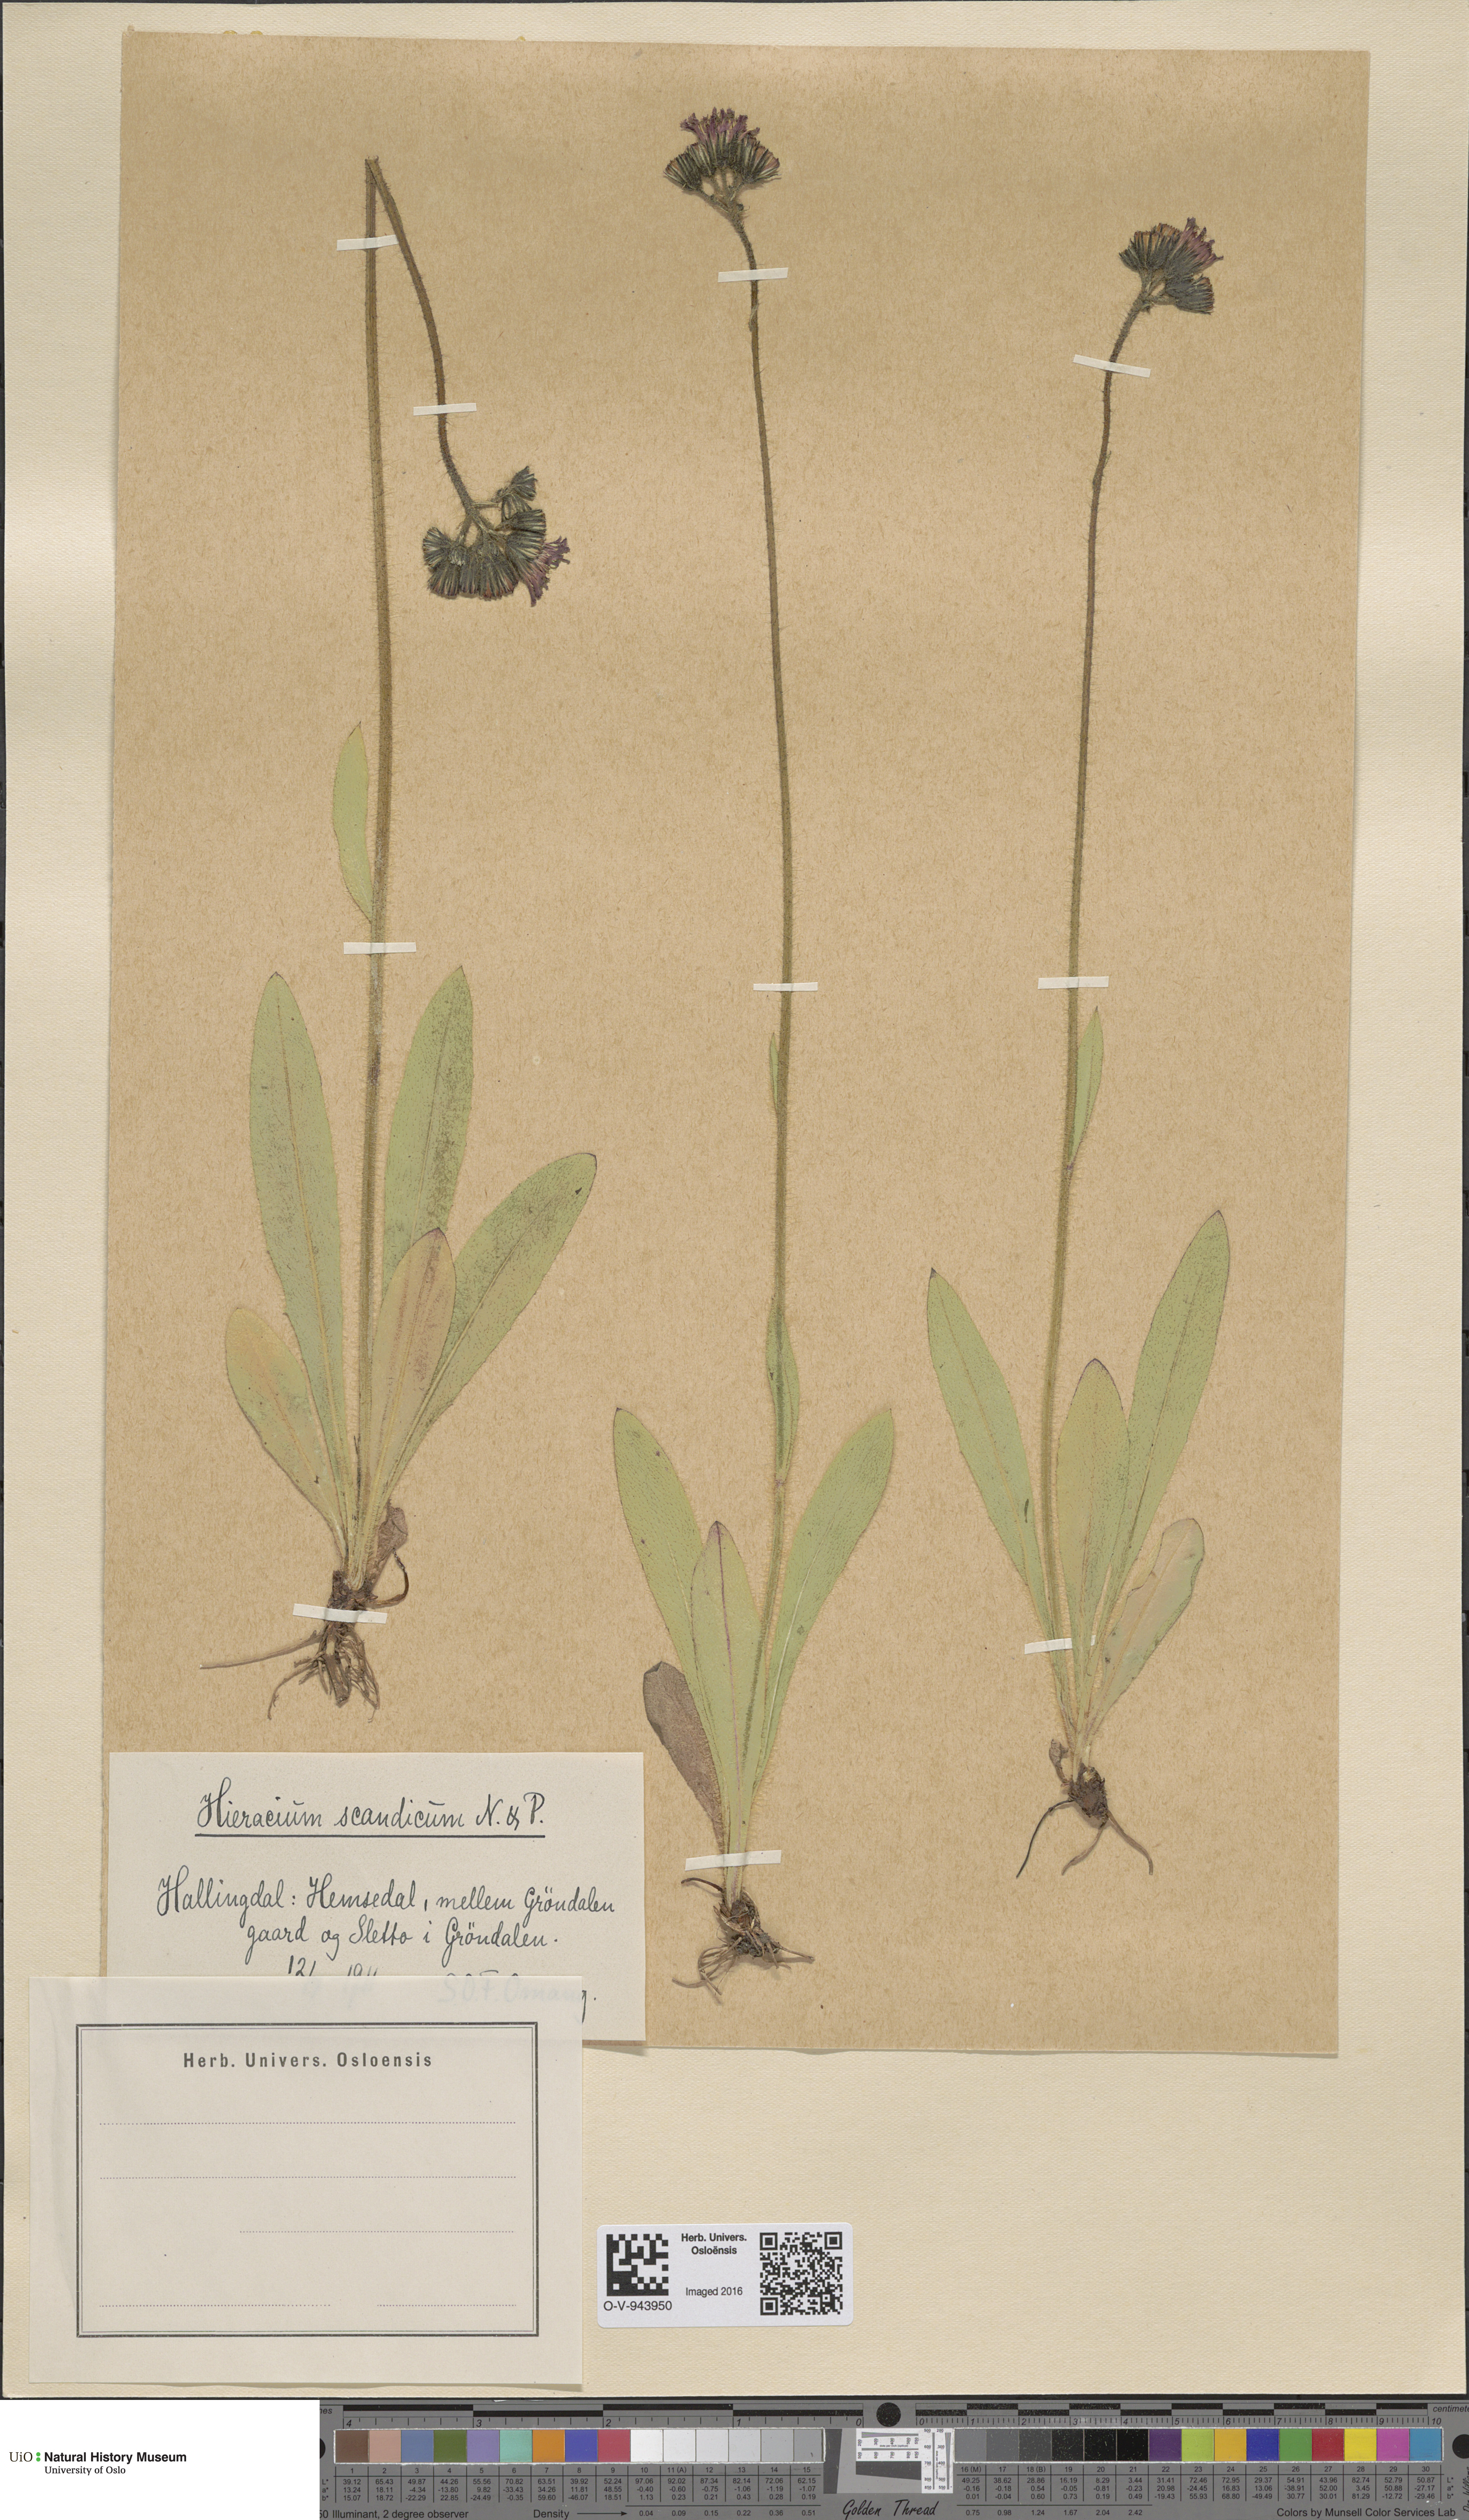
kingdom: Plantae
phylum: Tracheophyta
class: Magnoliopsida
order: Asterales
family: Asteraceae
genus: Pilosella
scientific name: Pilosella aurantiaca
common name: Fox-and-cubs
